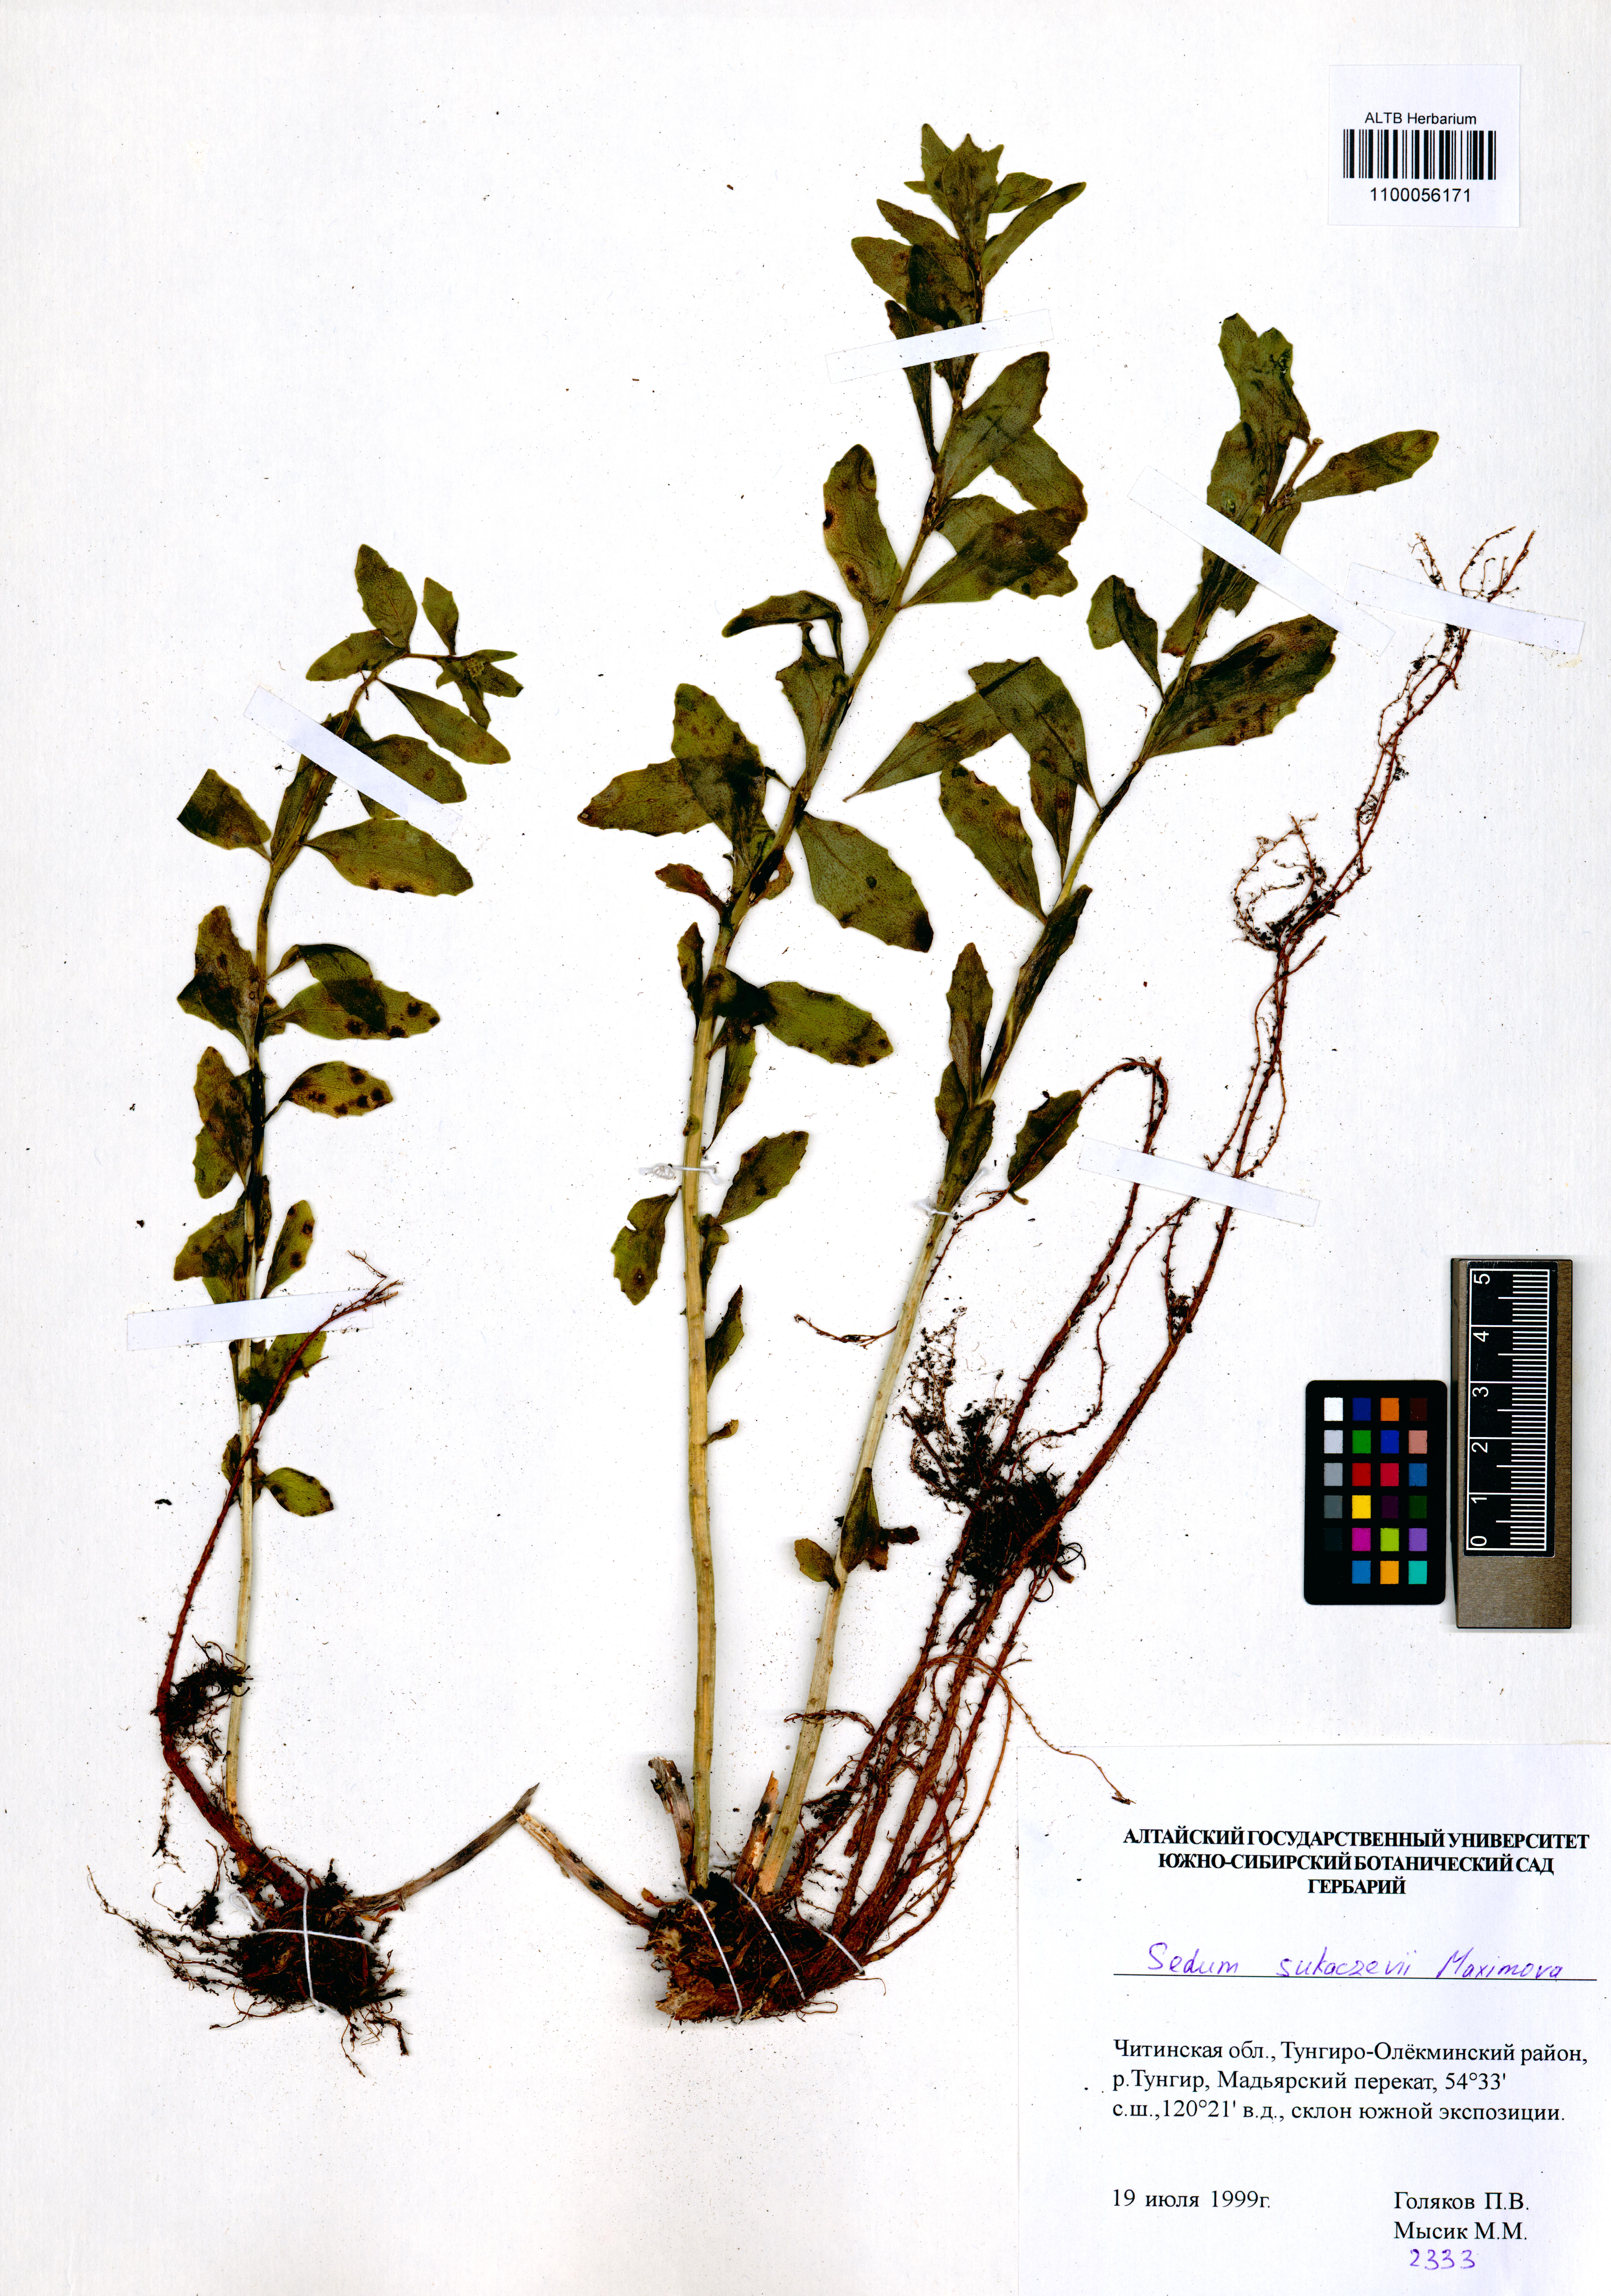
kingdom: Plantae
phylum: Tracheophyta
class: Magnoliopsida
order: Saxifragales
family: Crassulaceae
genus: Hylotelephium
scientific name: Hylotelephium pallescens
